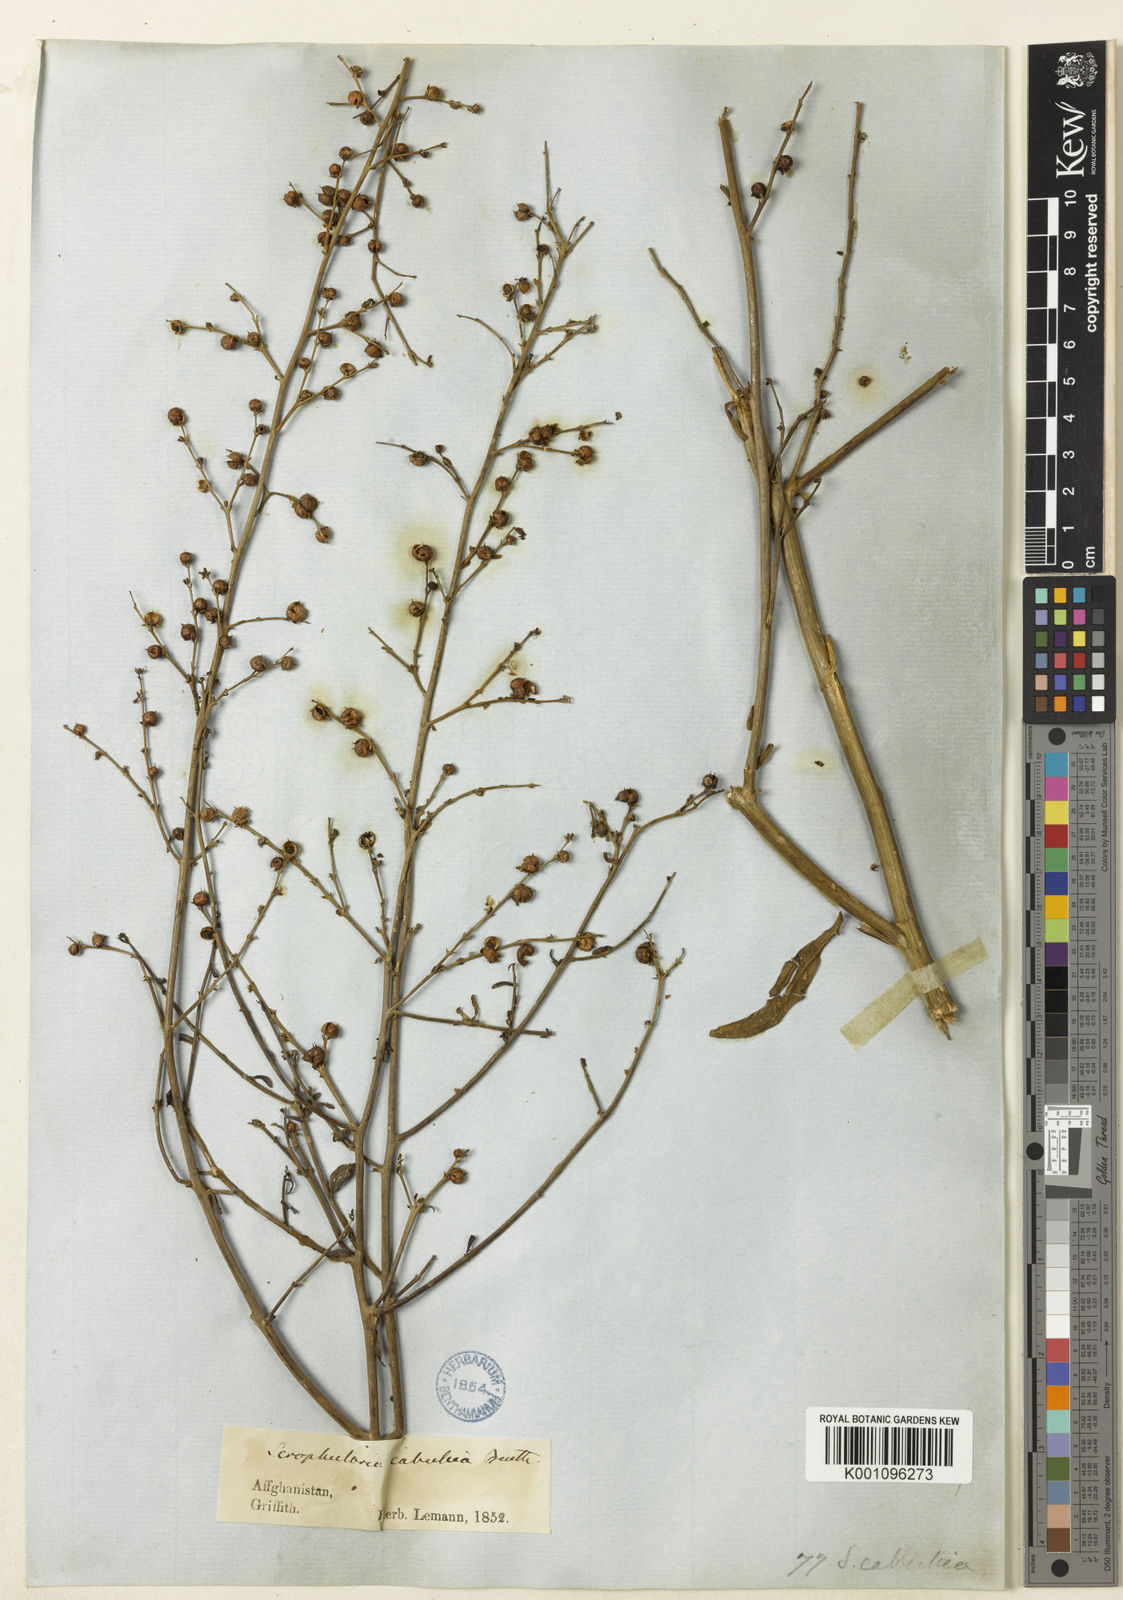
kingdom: Plantae
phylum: Tracheophyta
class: Magnoliopsida
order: Lamiales
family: Scrophulariaceae
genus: Scrophularia
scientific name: Scrophularia cabulica
